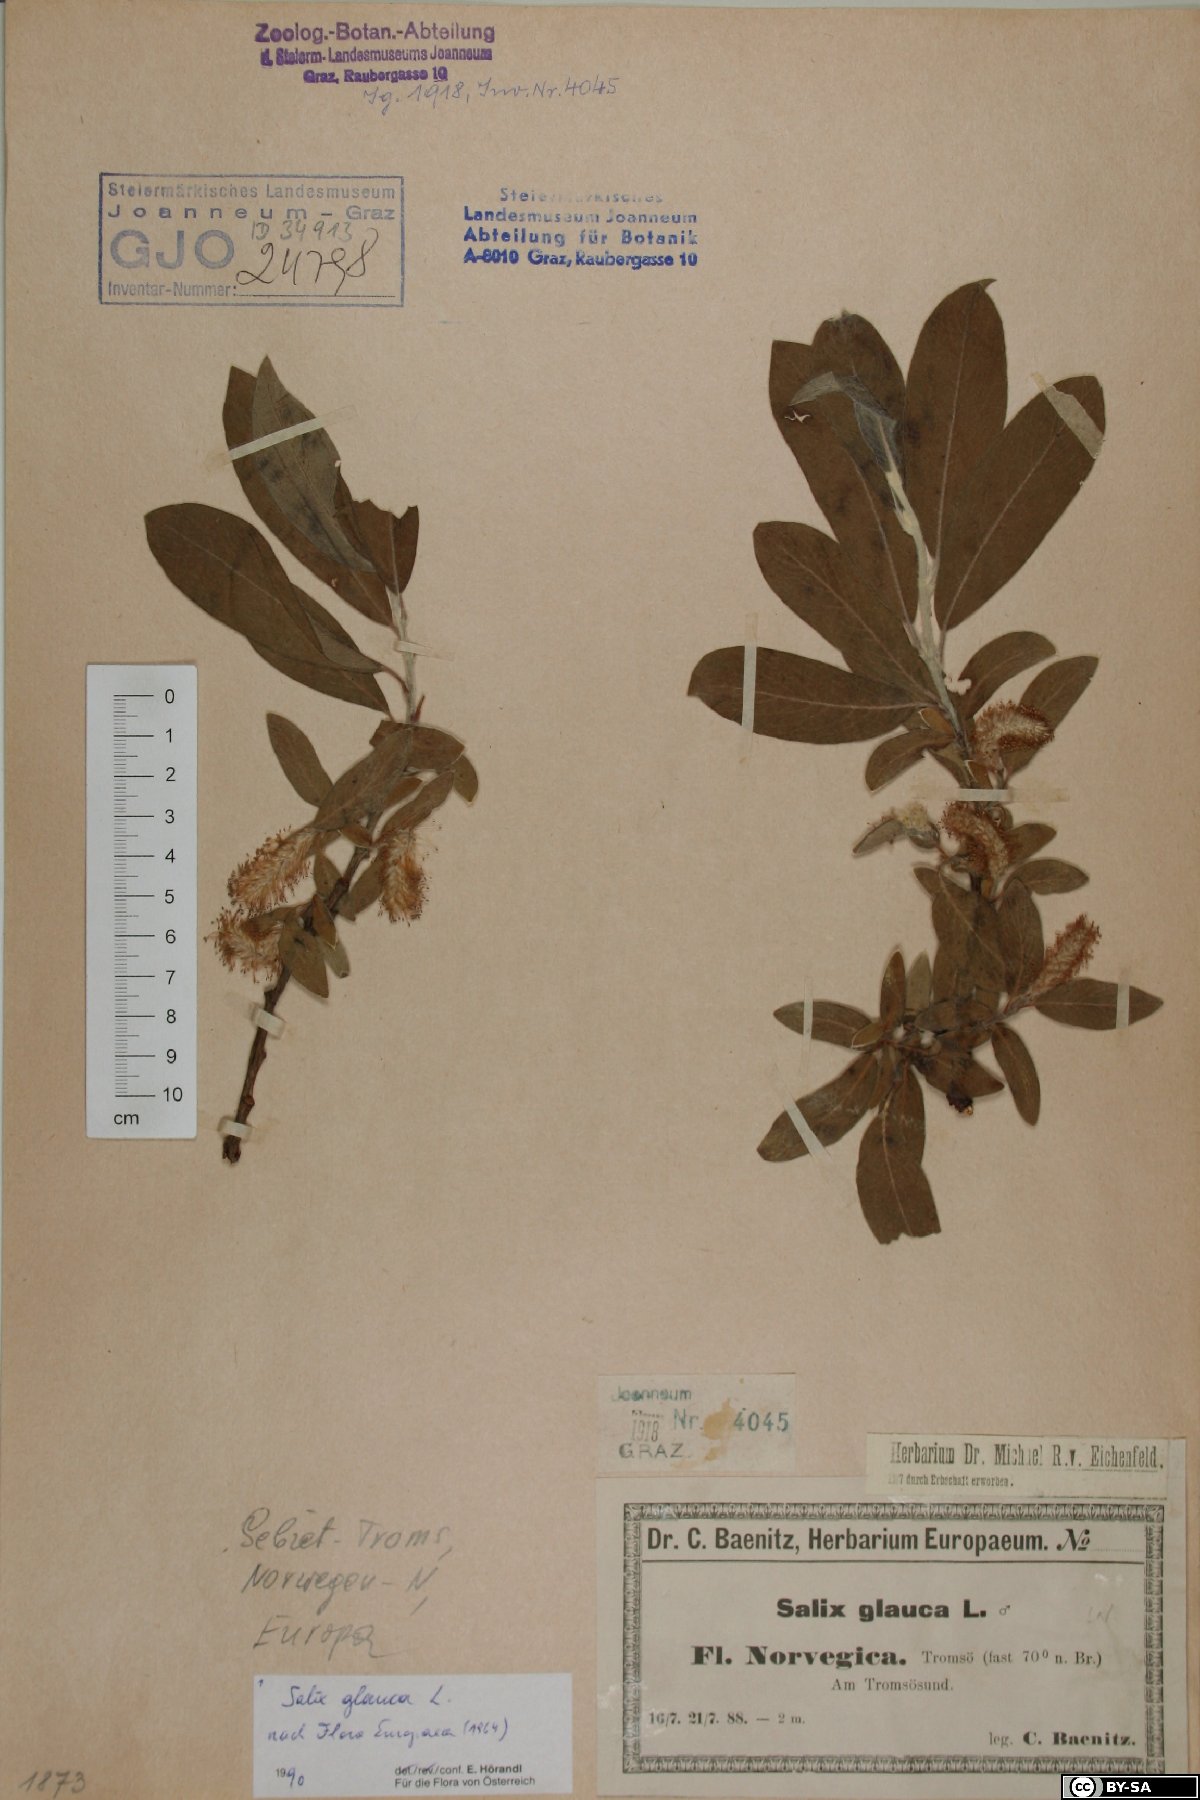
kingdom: Plantae
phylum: Tracheophyta
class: Magnoliopsida
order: Malpighiales
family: Salicaceae
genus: Salix
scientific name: Salix glauca
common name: Glaucous willow
